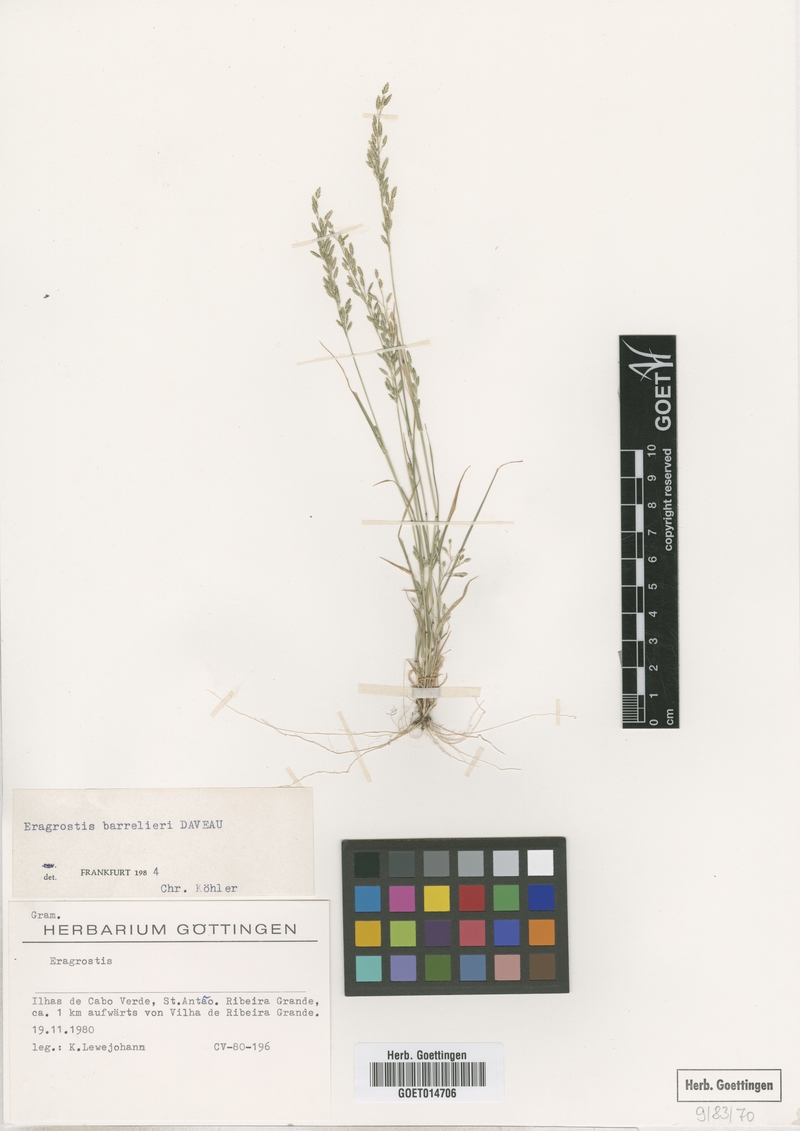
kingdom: Plantae
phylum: Tracheophyta
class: Liliopsida
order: Poales
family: Poaceae
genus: Eragrostis
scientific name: Eragrostis barrelieri
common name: Mediterranean lovegrass
